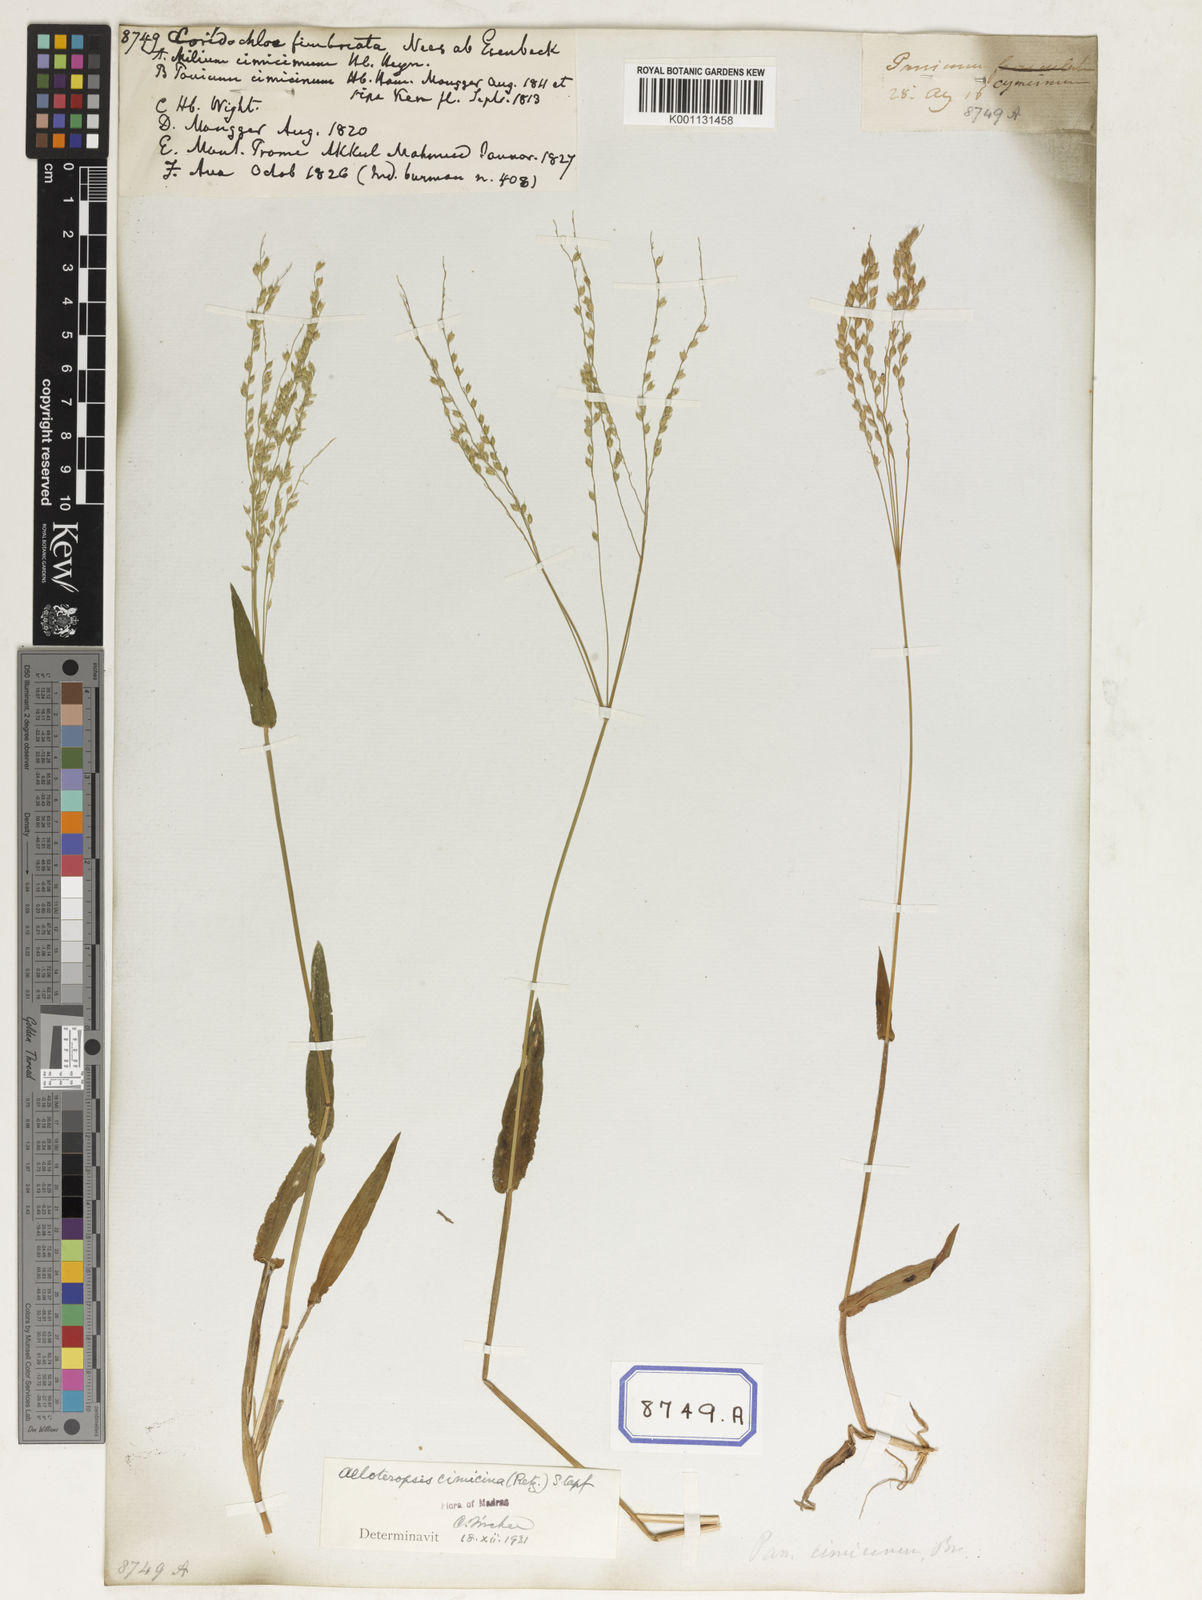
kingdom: Plantae
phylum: Tracheophyta
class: Liliopsida
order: Poales
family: Poaceae
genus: Alloteropsis
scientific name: Alloteropsis
